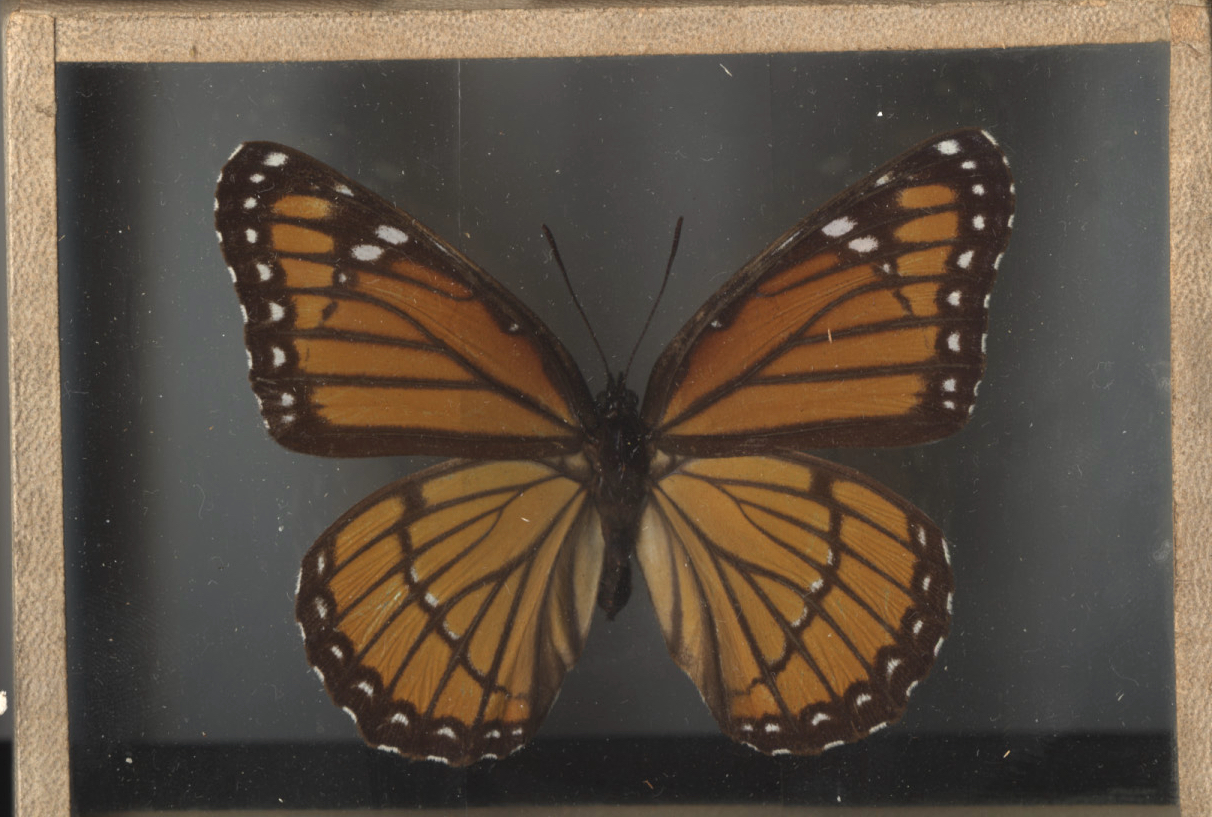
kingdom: Animalia
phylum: Arthropoda
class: Insecta
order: Lepidoptera
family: Nymphalidae
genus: Limenitis
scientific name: Limenitis archippus
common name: Viceroy
